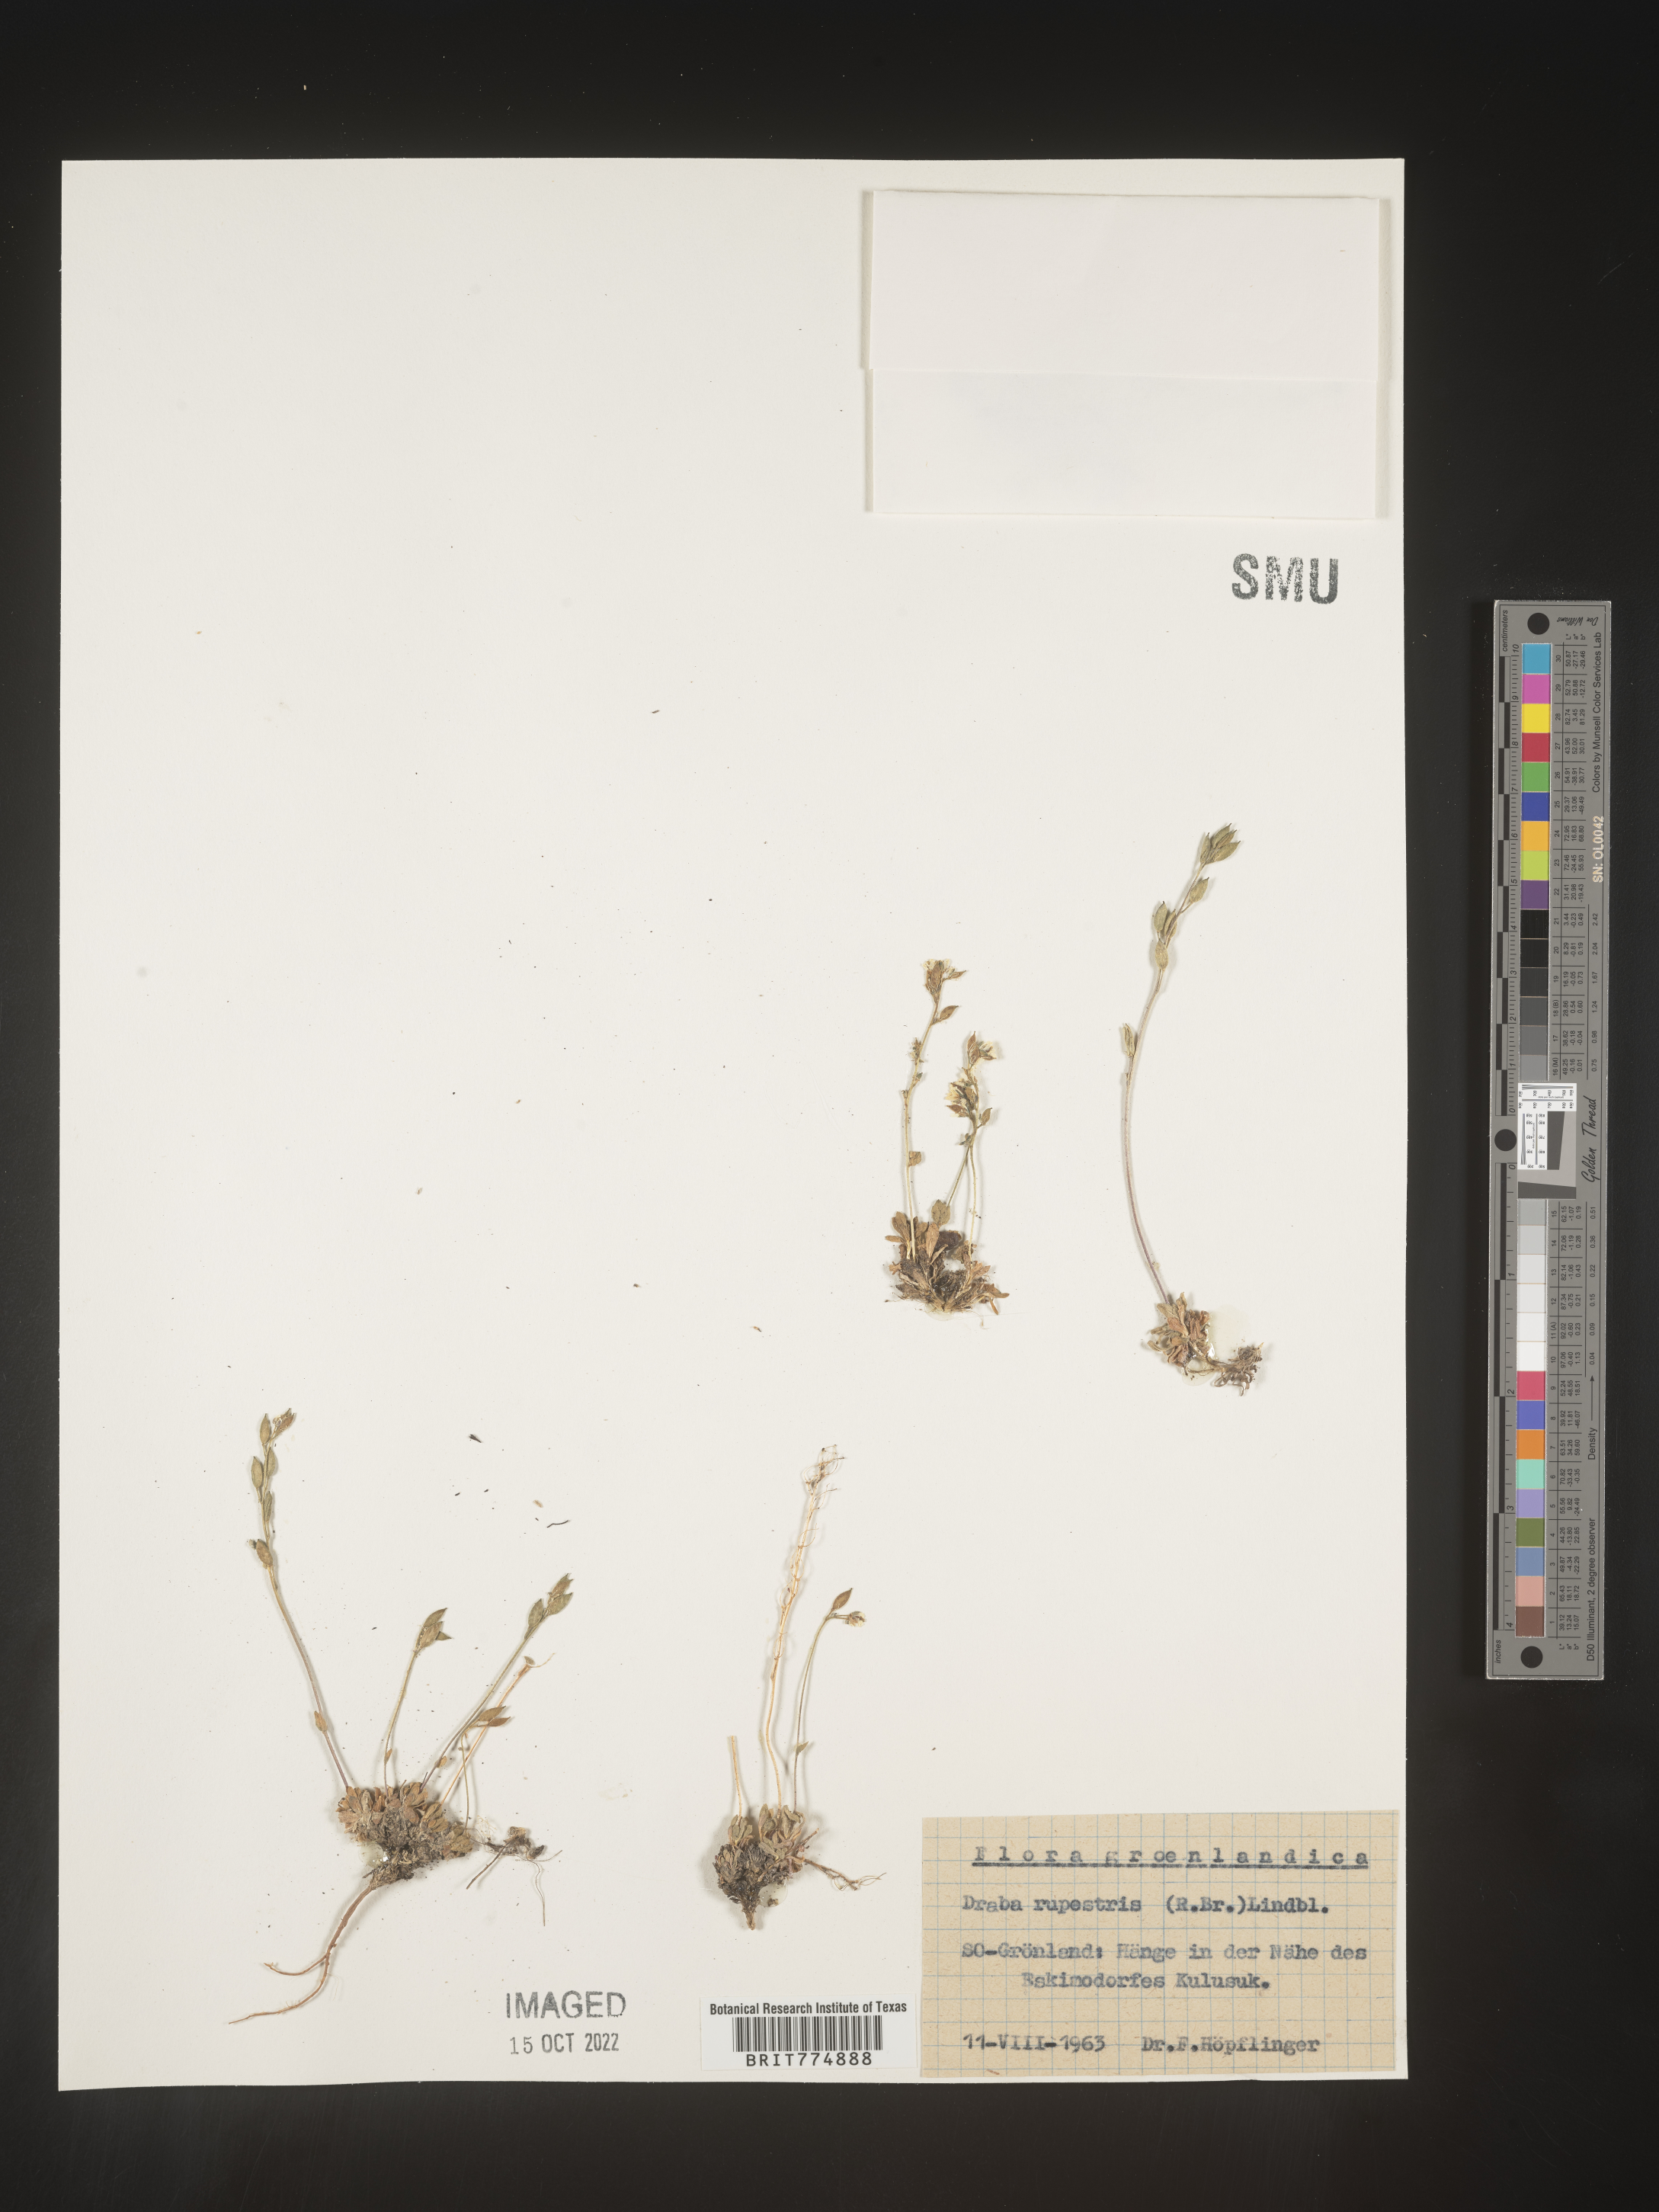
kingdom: Plantae
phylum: Tracheophyta
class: Magnoliopsida
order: Brassicales
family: Brassicaceae
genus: Draba
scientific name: Draba
